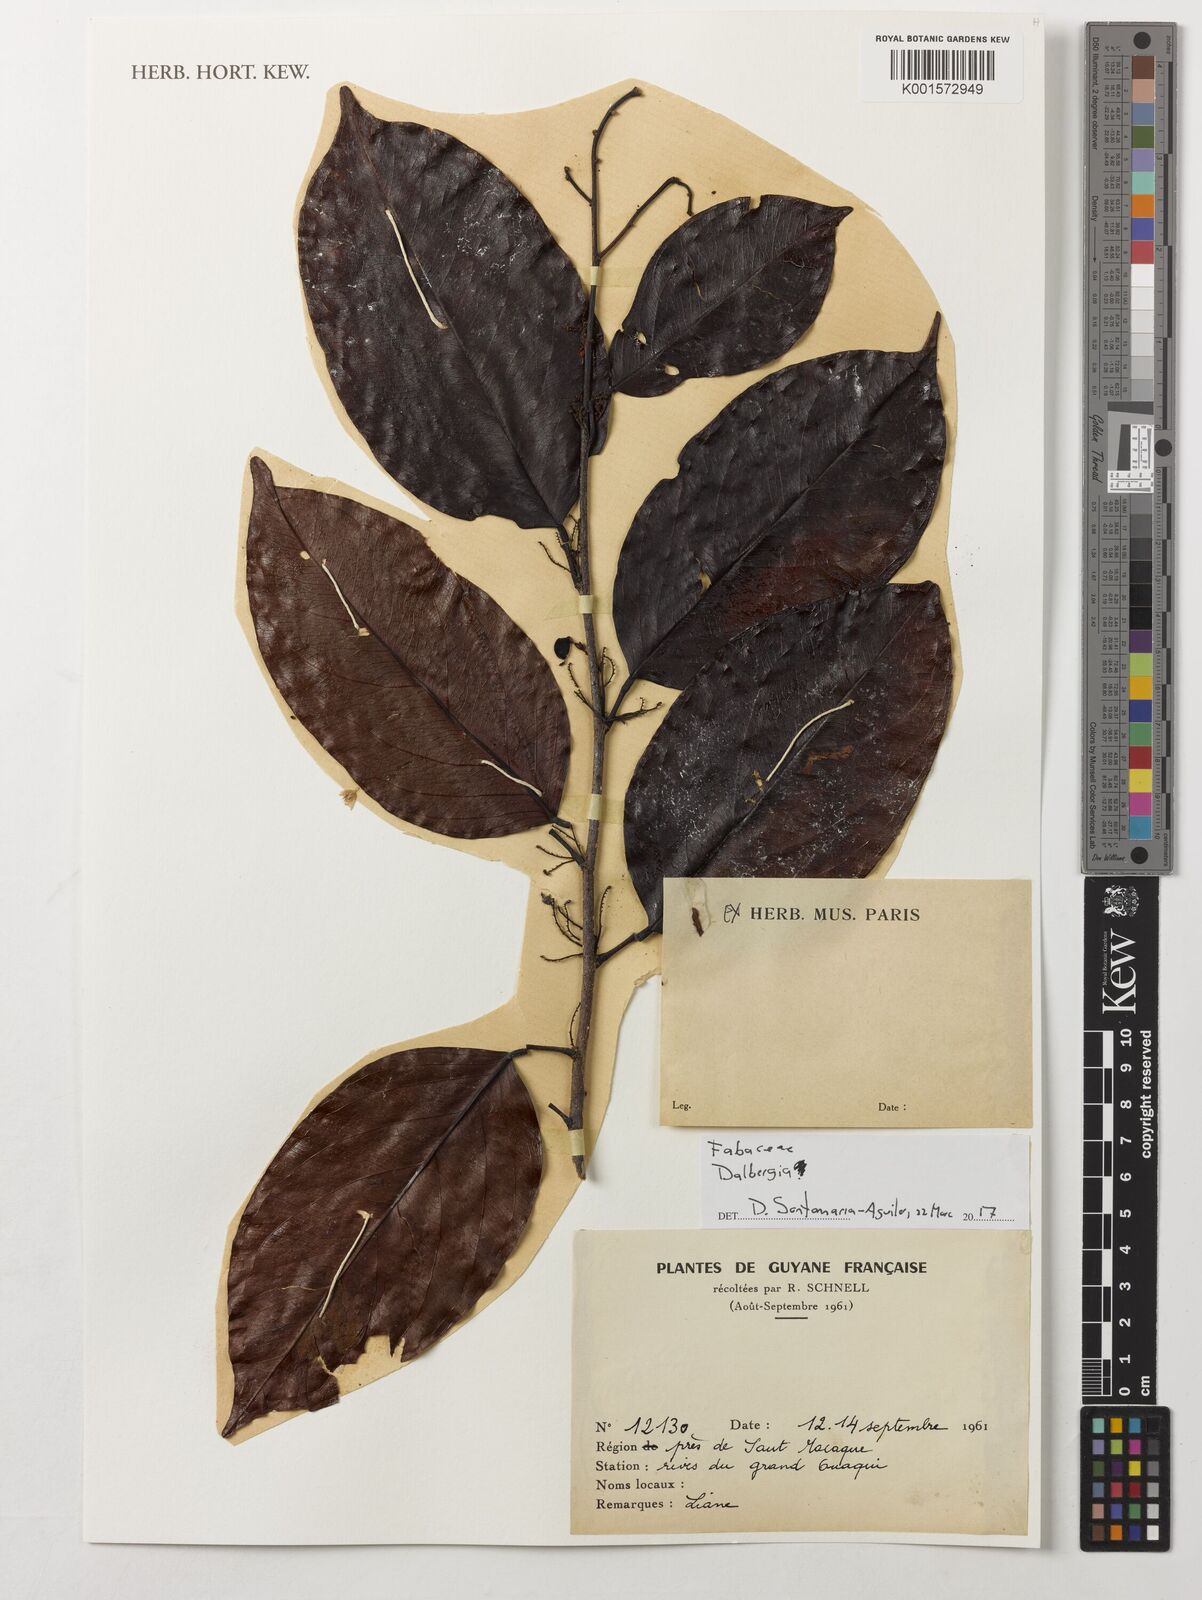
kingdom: Plantae
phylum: Tracheophyta
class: Magnoliopsida
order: Fabales
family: Fabaceae
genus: Dalbergia
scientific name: Dalbergia
